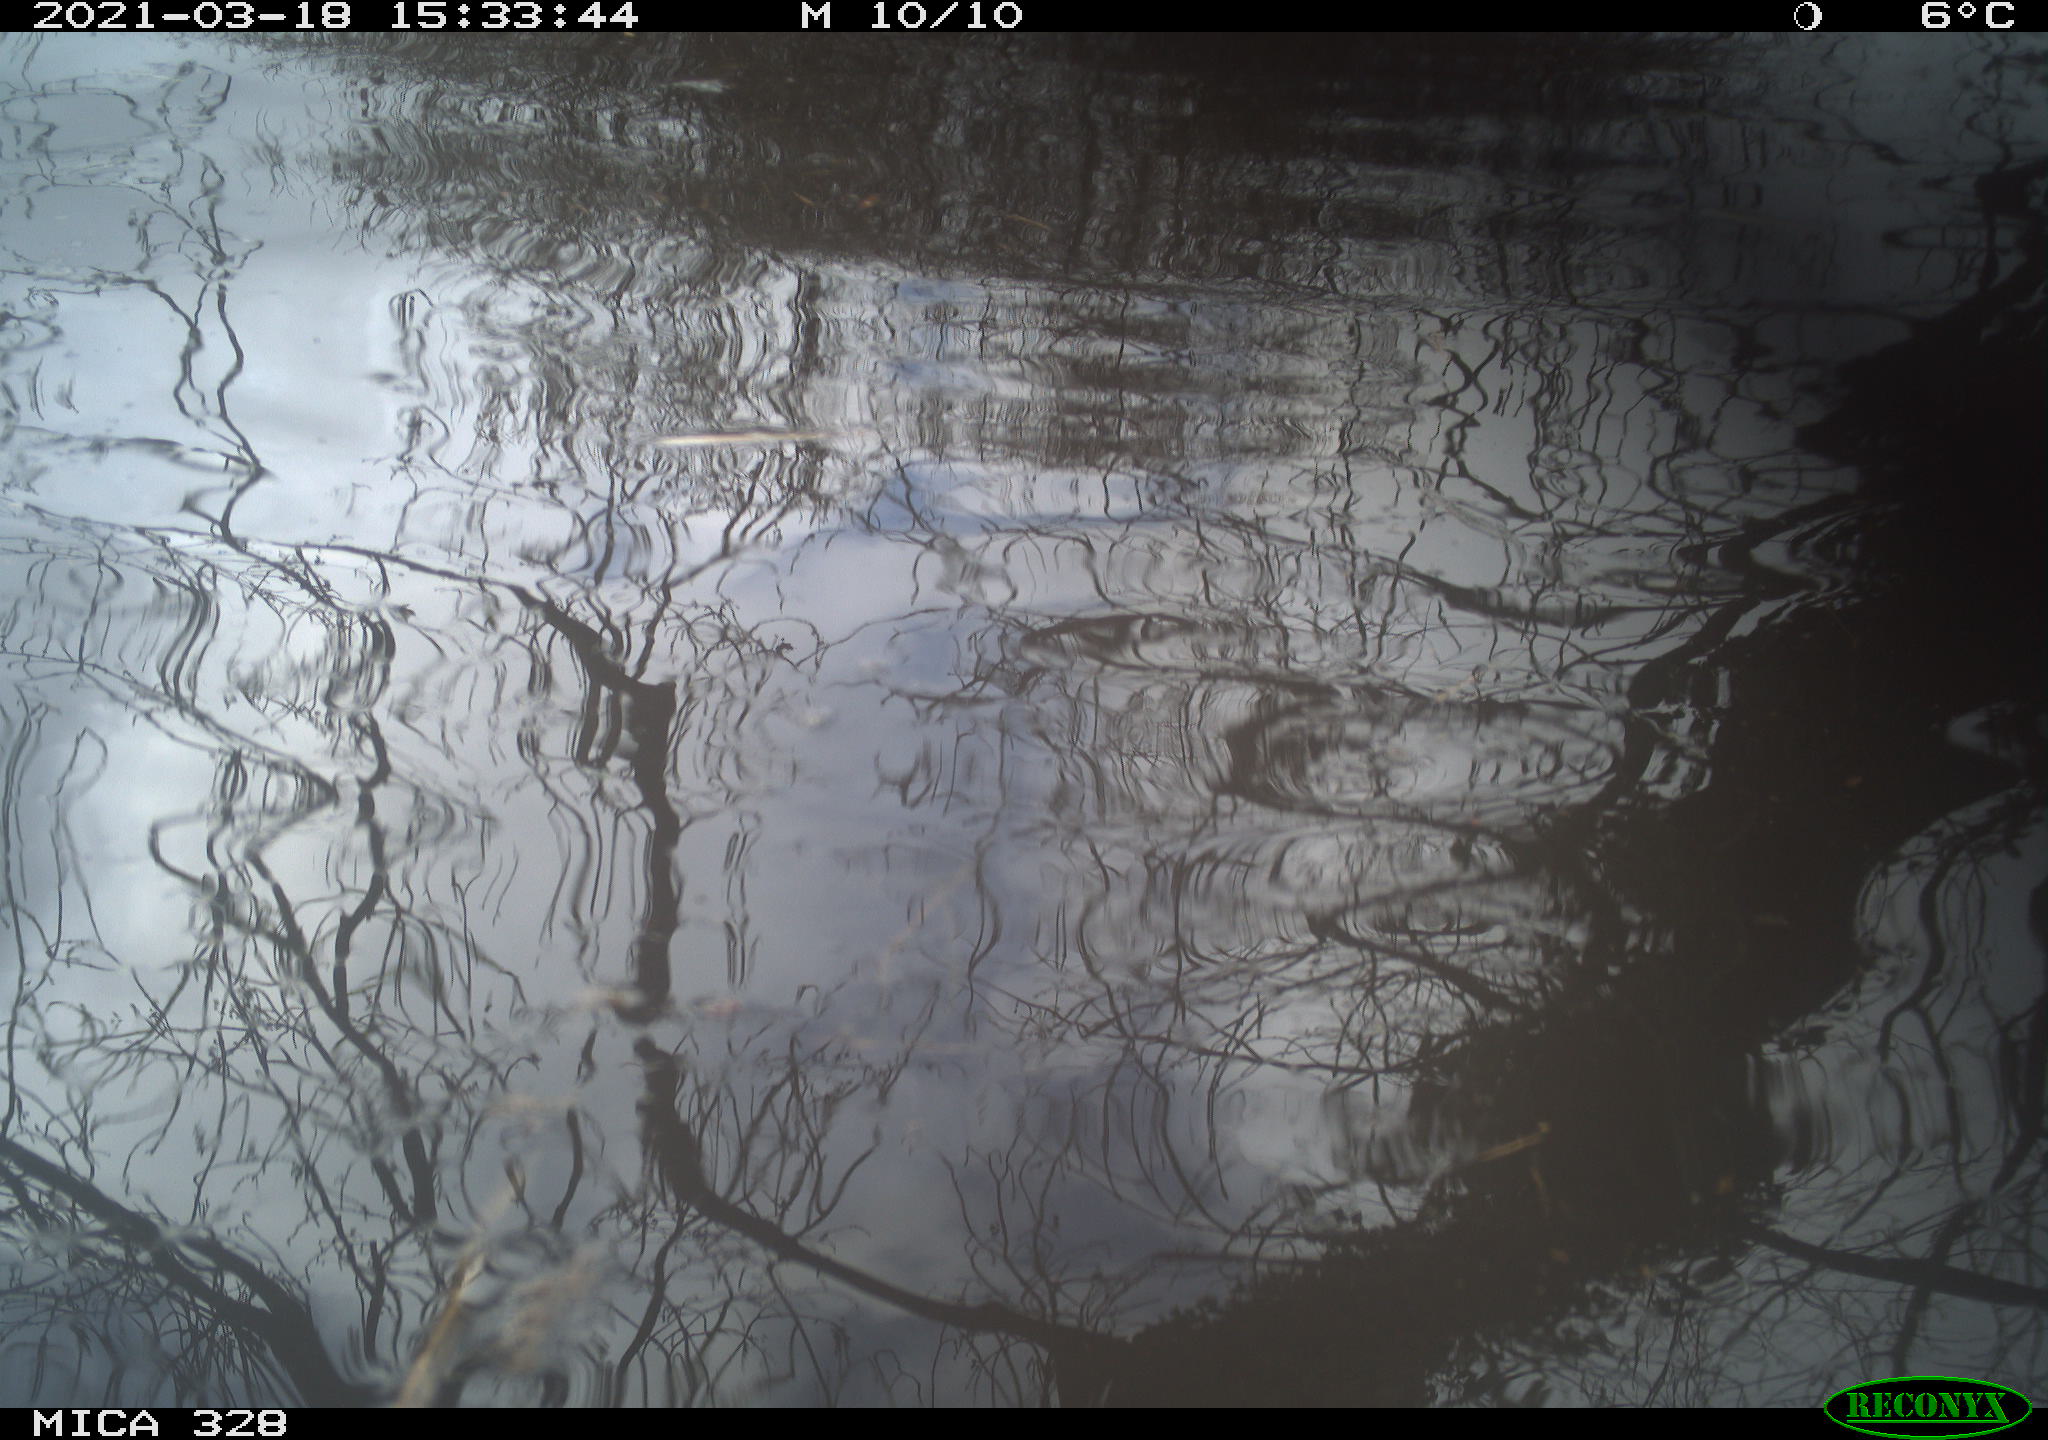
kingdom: Animalia
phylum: Chordata
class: Mammalia
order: Rodentia
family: Cricetidae
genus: Ondatra
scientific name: Ondatra zibethicus
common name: Muskrat
